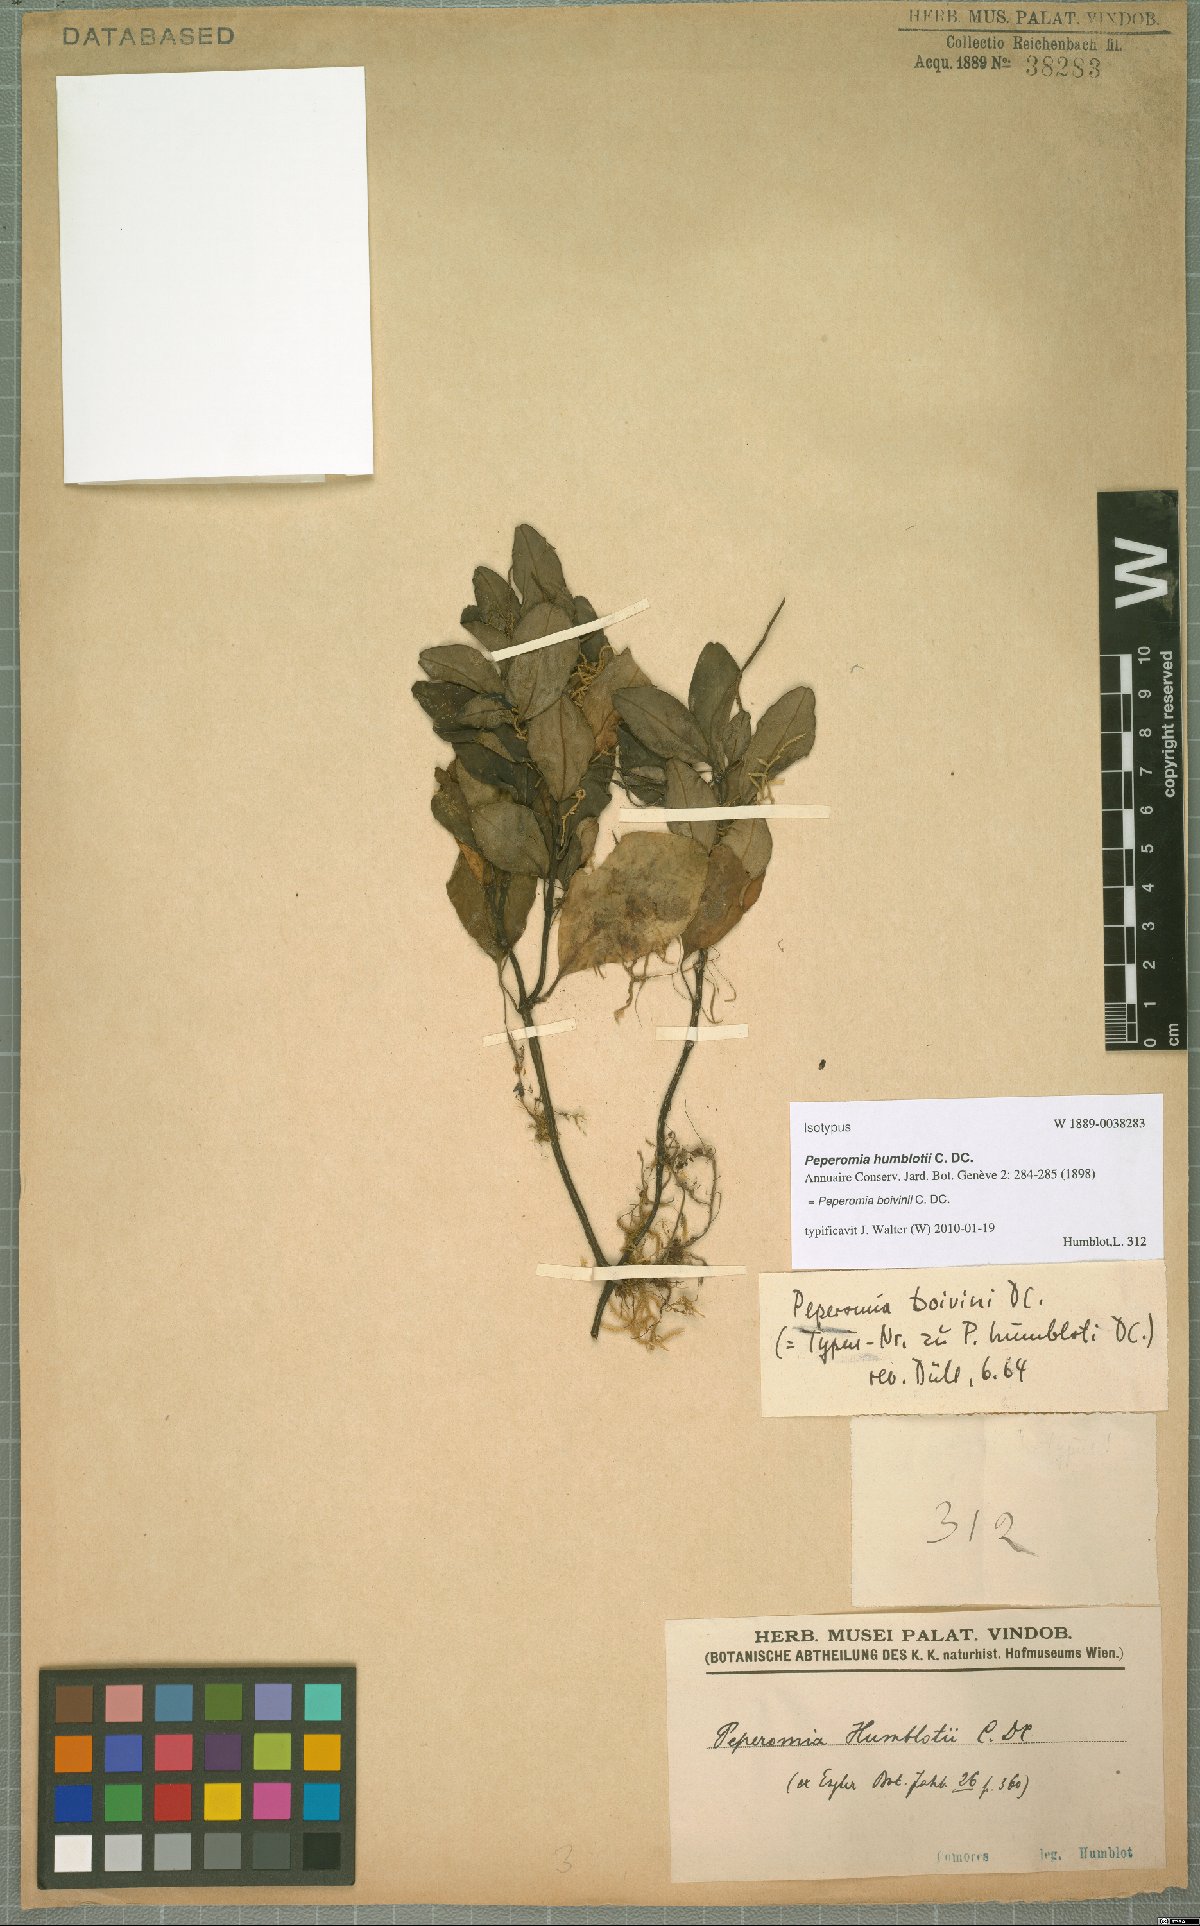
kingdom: Plantae
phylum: Tracheophyta
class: Magnoliopsida
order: Piperales
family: Piperaceae
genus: Peperomia
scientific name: Peperomia boivinii
